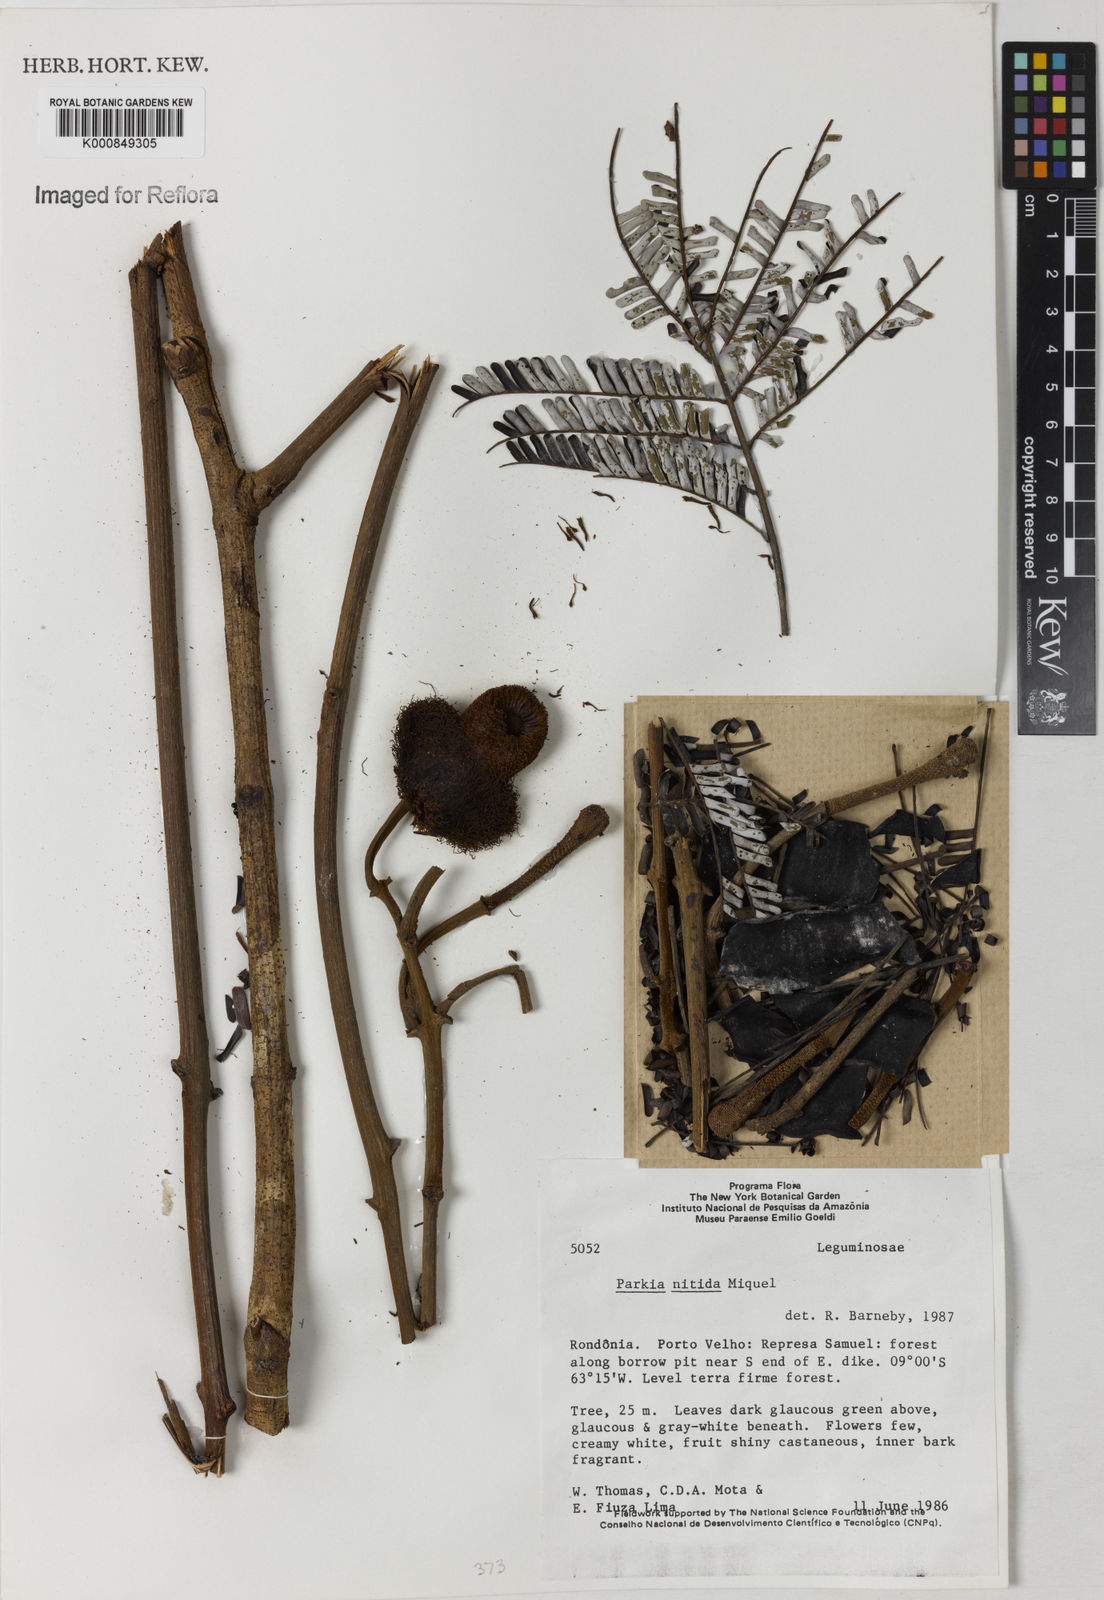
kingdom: Plantae
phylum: Tracheophyta
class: Magnoliopsida
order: Fabales
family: Fabaceae
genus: Parkia
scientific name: Parkia nitida
